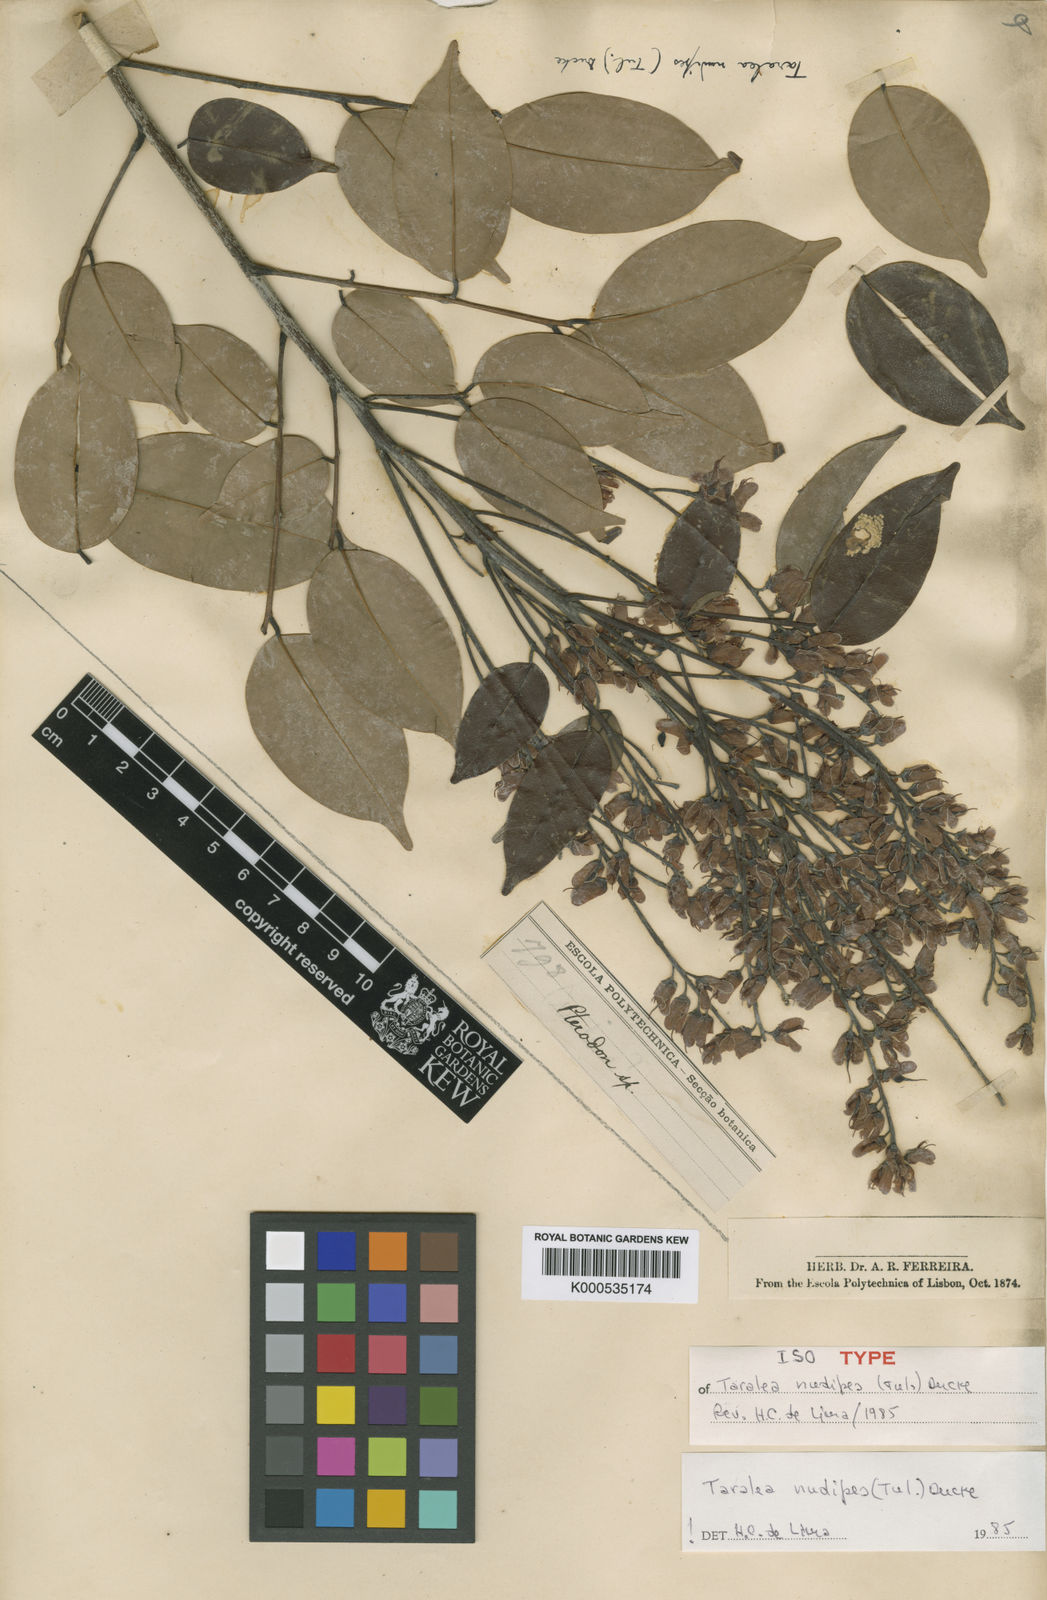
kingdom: Plantae
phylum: Tracheophyta
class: Magnoliopsida
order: Fabales
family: Fabaceae
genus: Taralea
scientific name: Taralea nudipes
